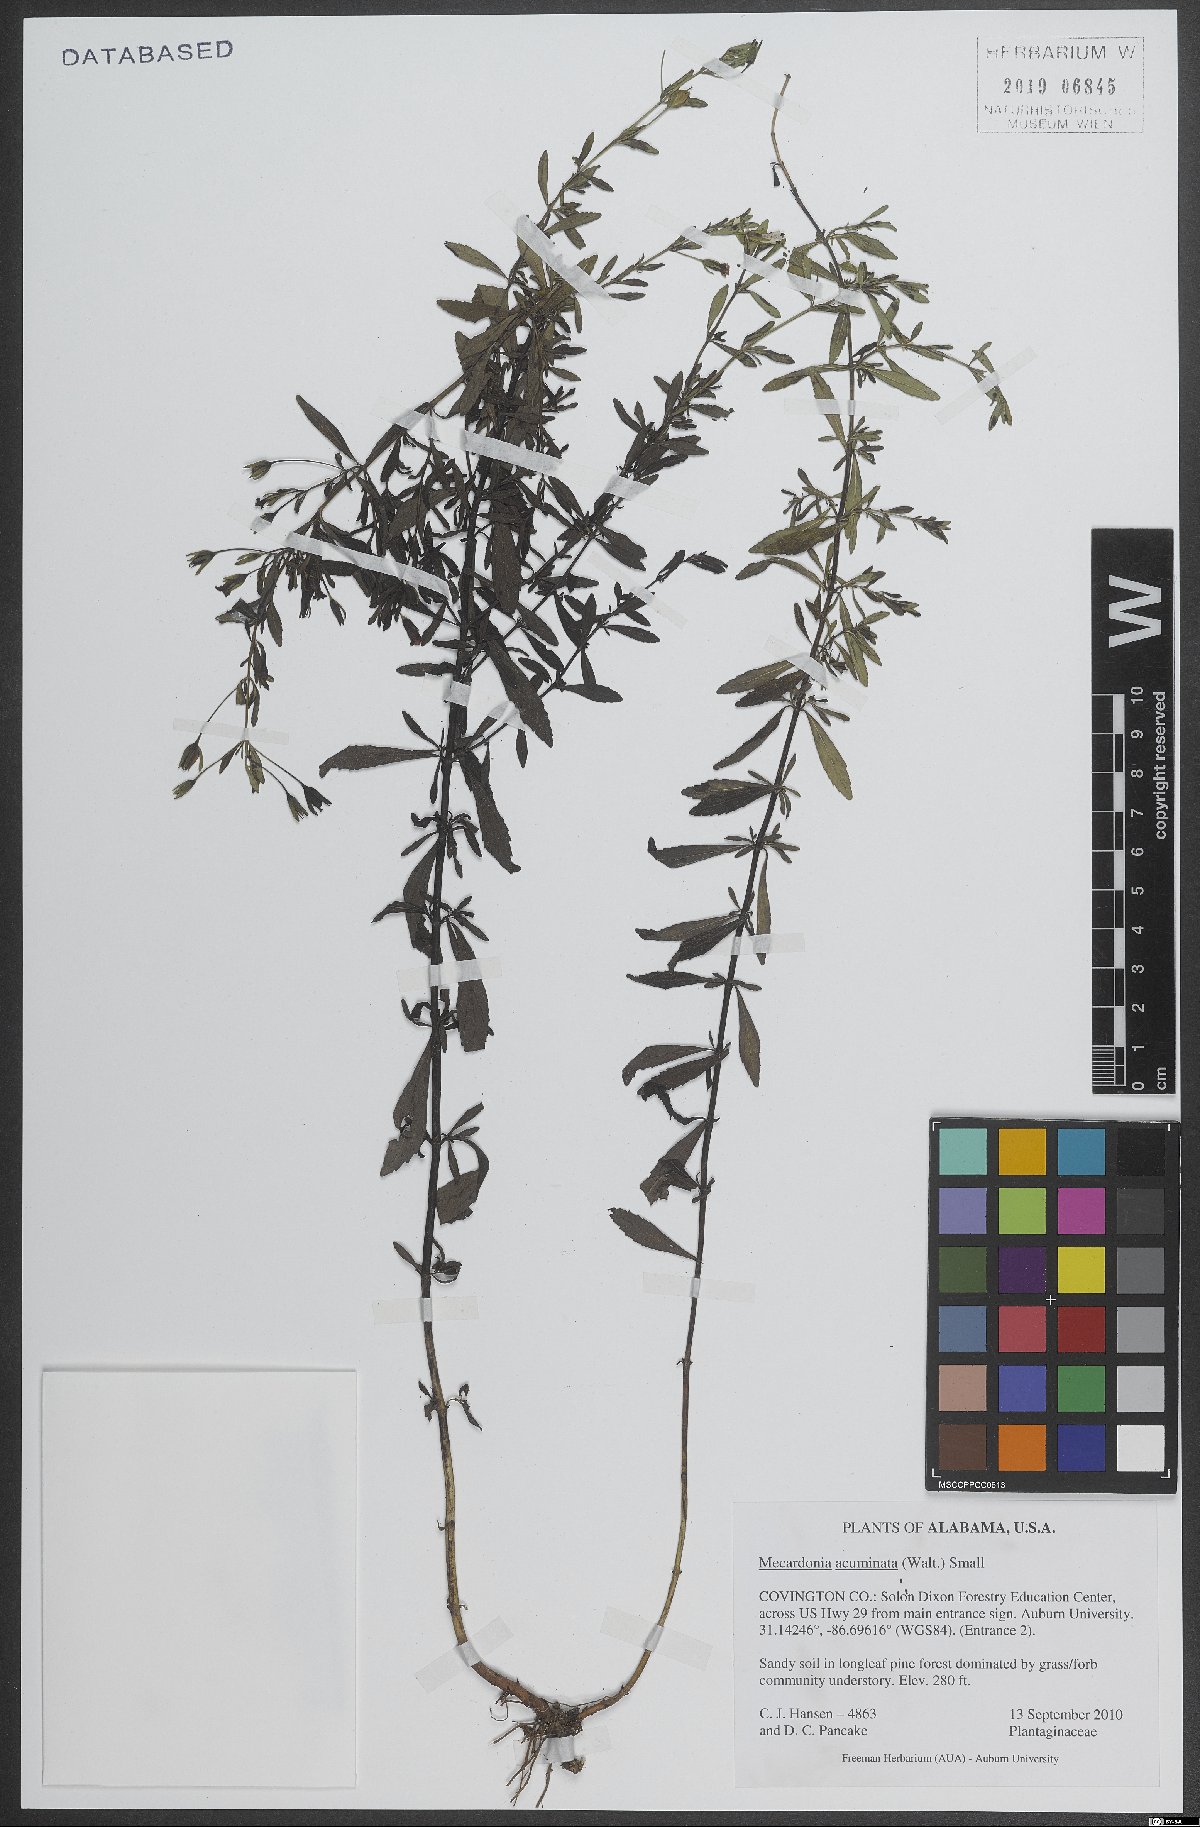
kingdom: Plantae
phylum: Tracheophyta
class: Magnoliopsida
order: Lamiales
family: Plantaginaceae
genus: Mecardonia
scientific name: Mecardonia acuminata
